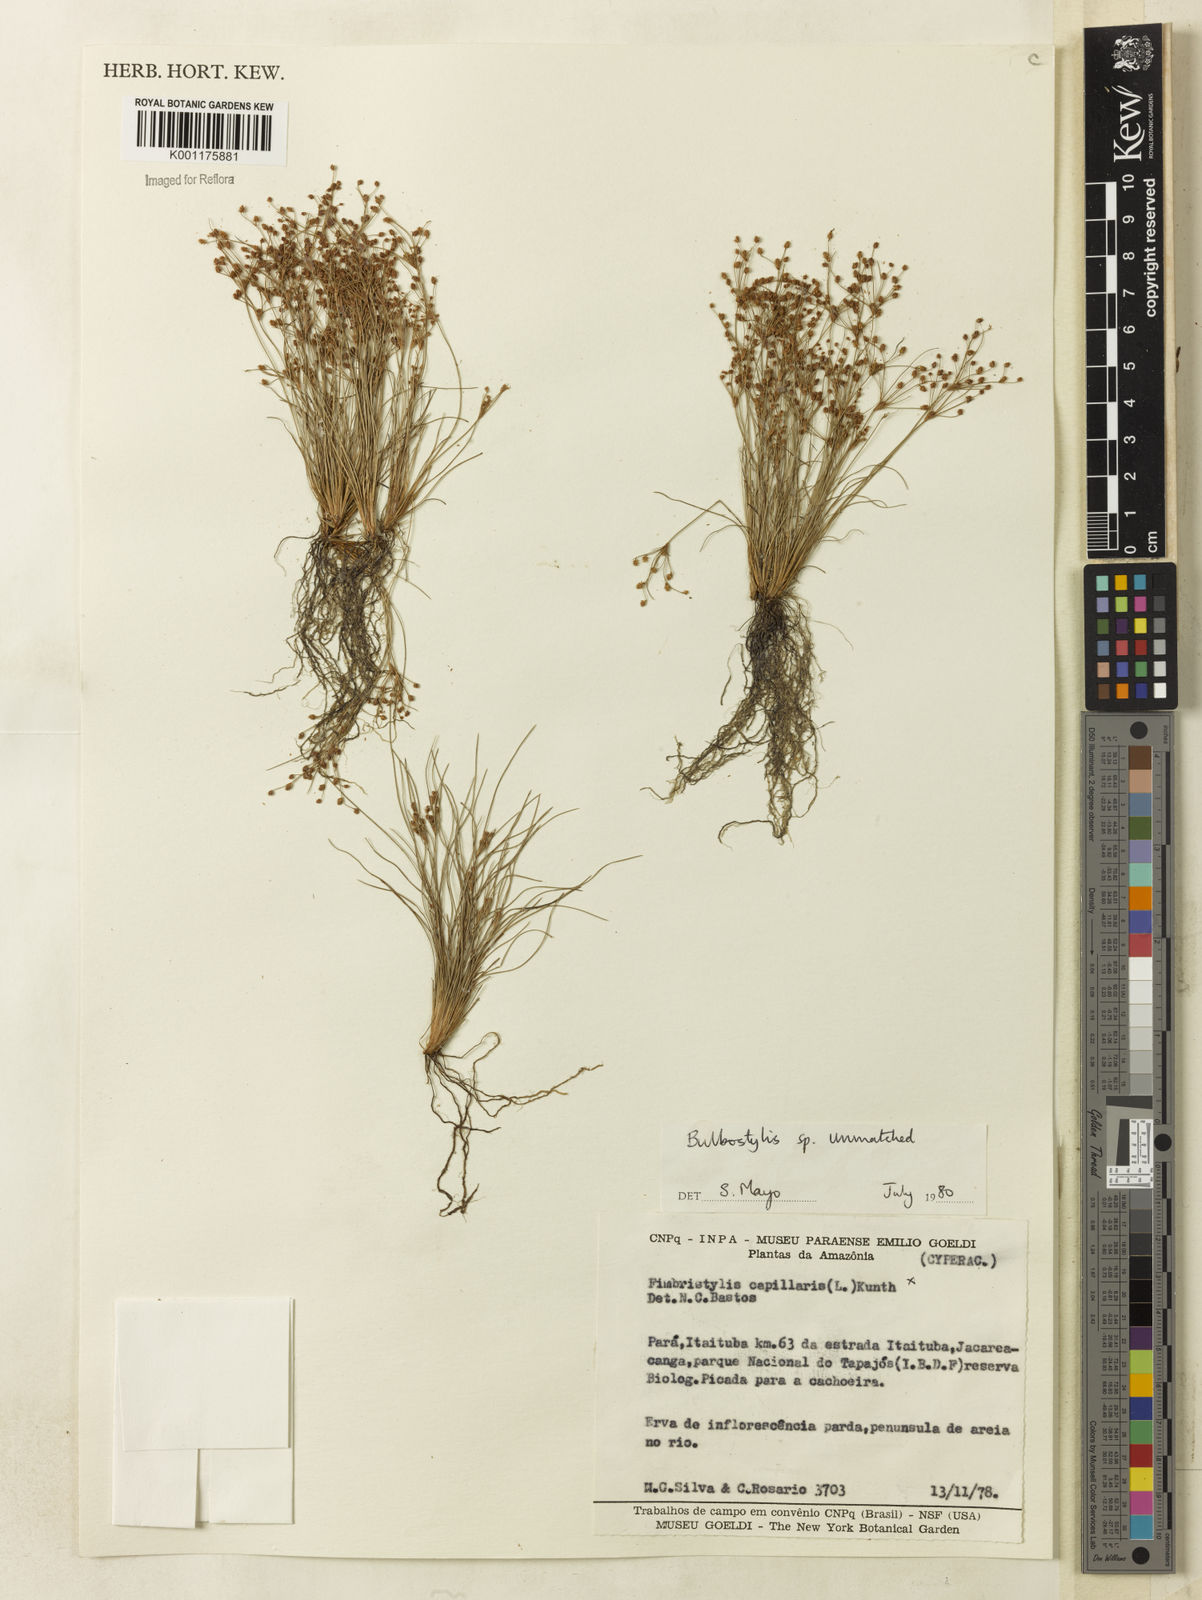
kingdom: Plantae
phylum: Tracheophyta
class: Liliopsida
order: Poales
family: Cyperaceae
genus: Bulbostylis
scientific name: Bulbostylis
